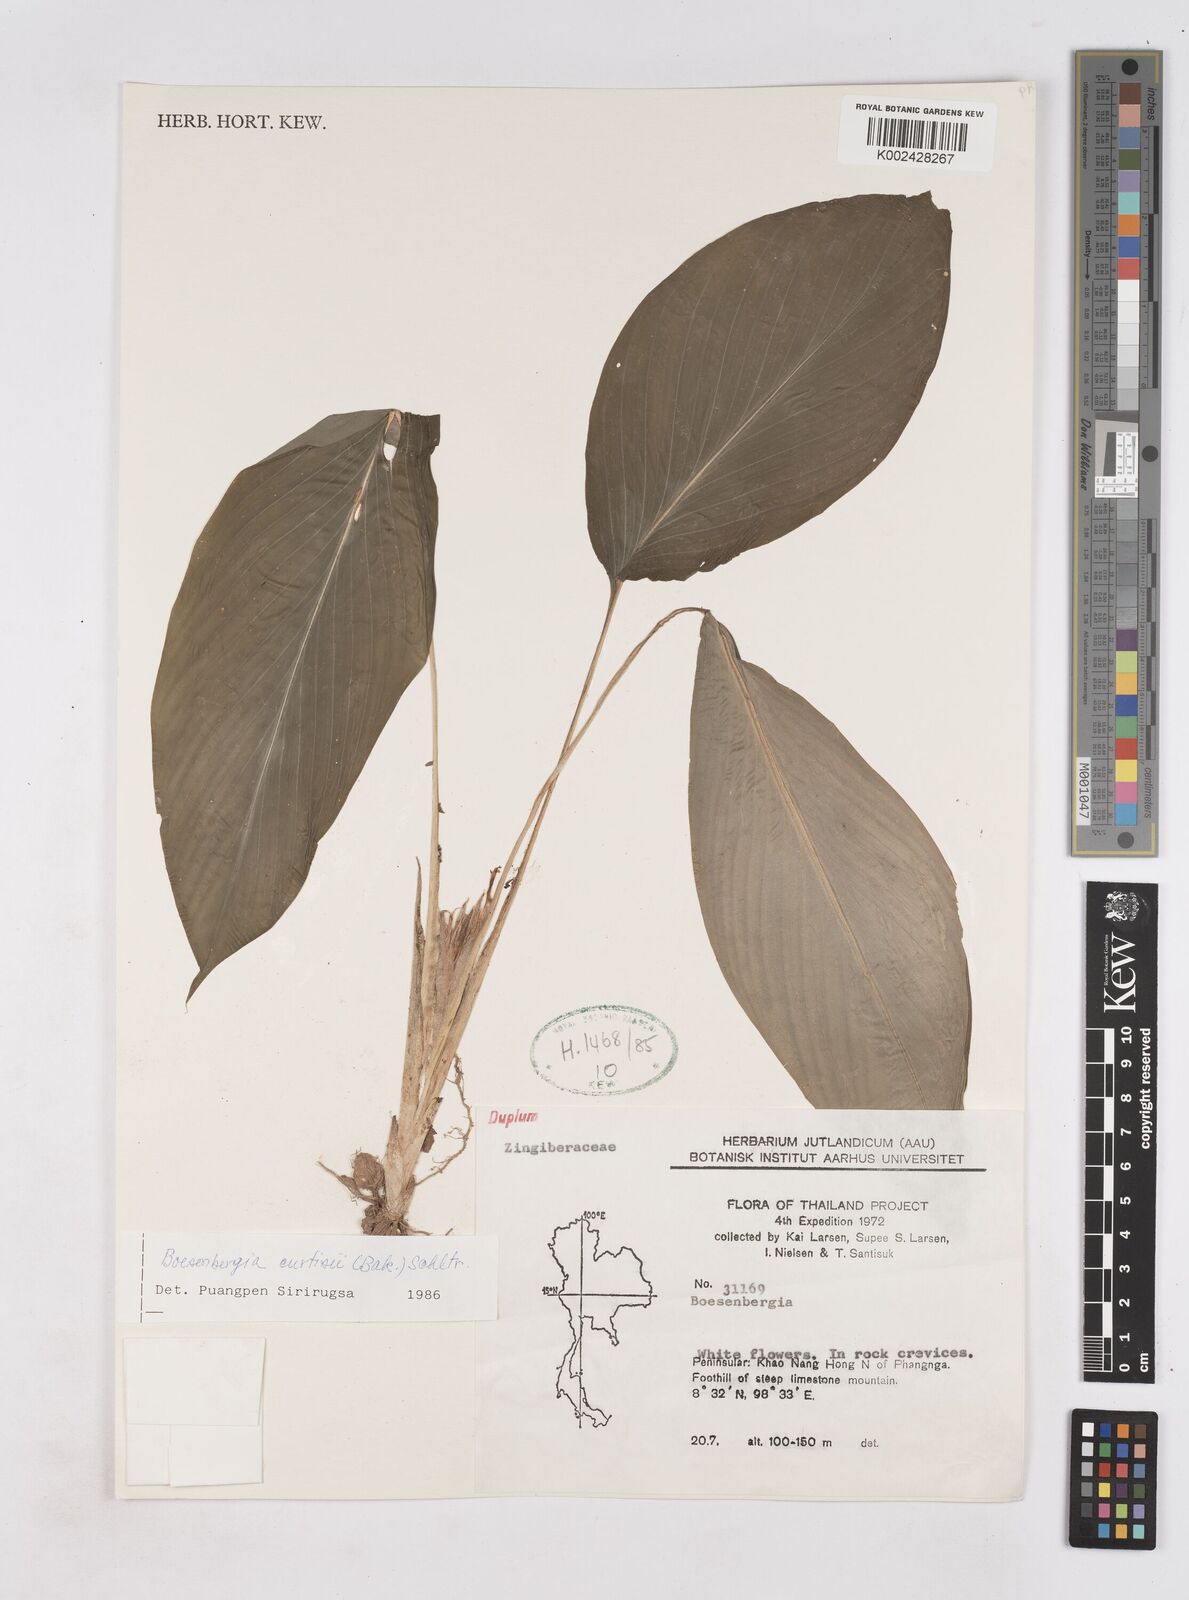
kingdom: Plantae
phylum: Tracheophyta
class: Liliopsida
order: Zingiberales
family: Zingiberaceae
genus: Boesenbergia
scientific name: Boesenbergia curtisii
